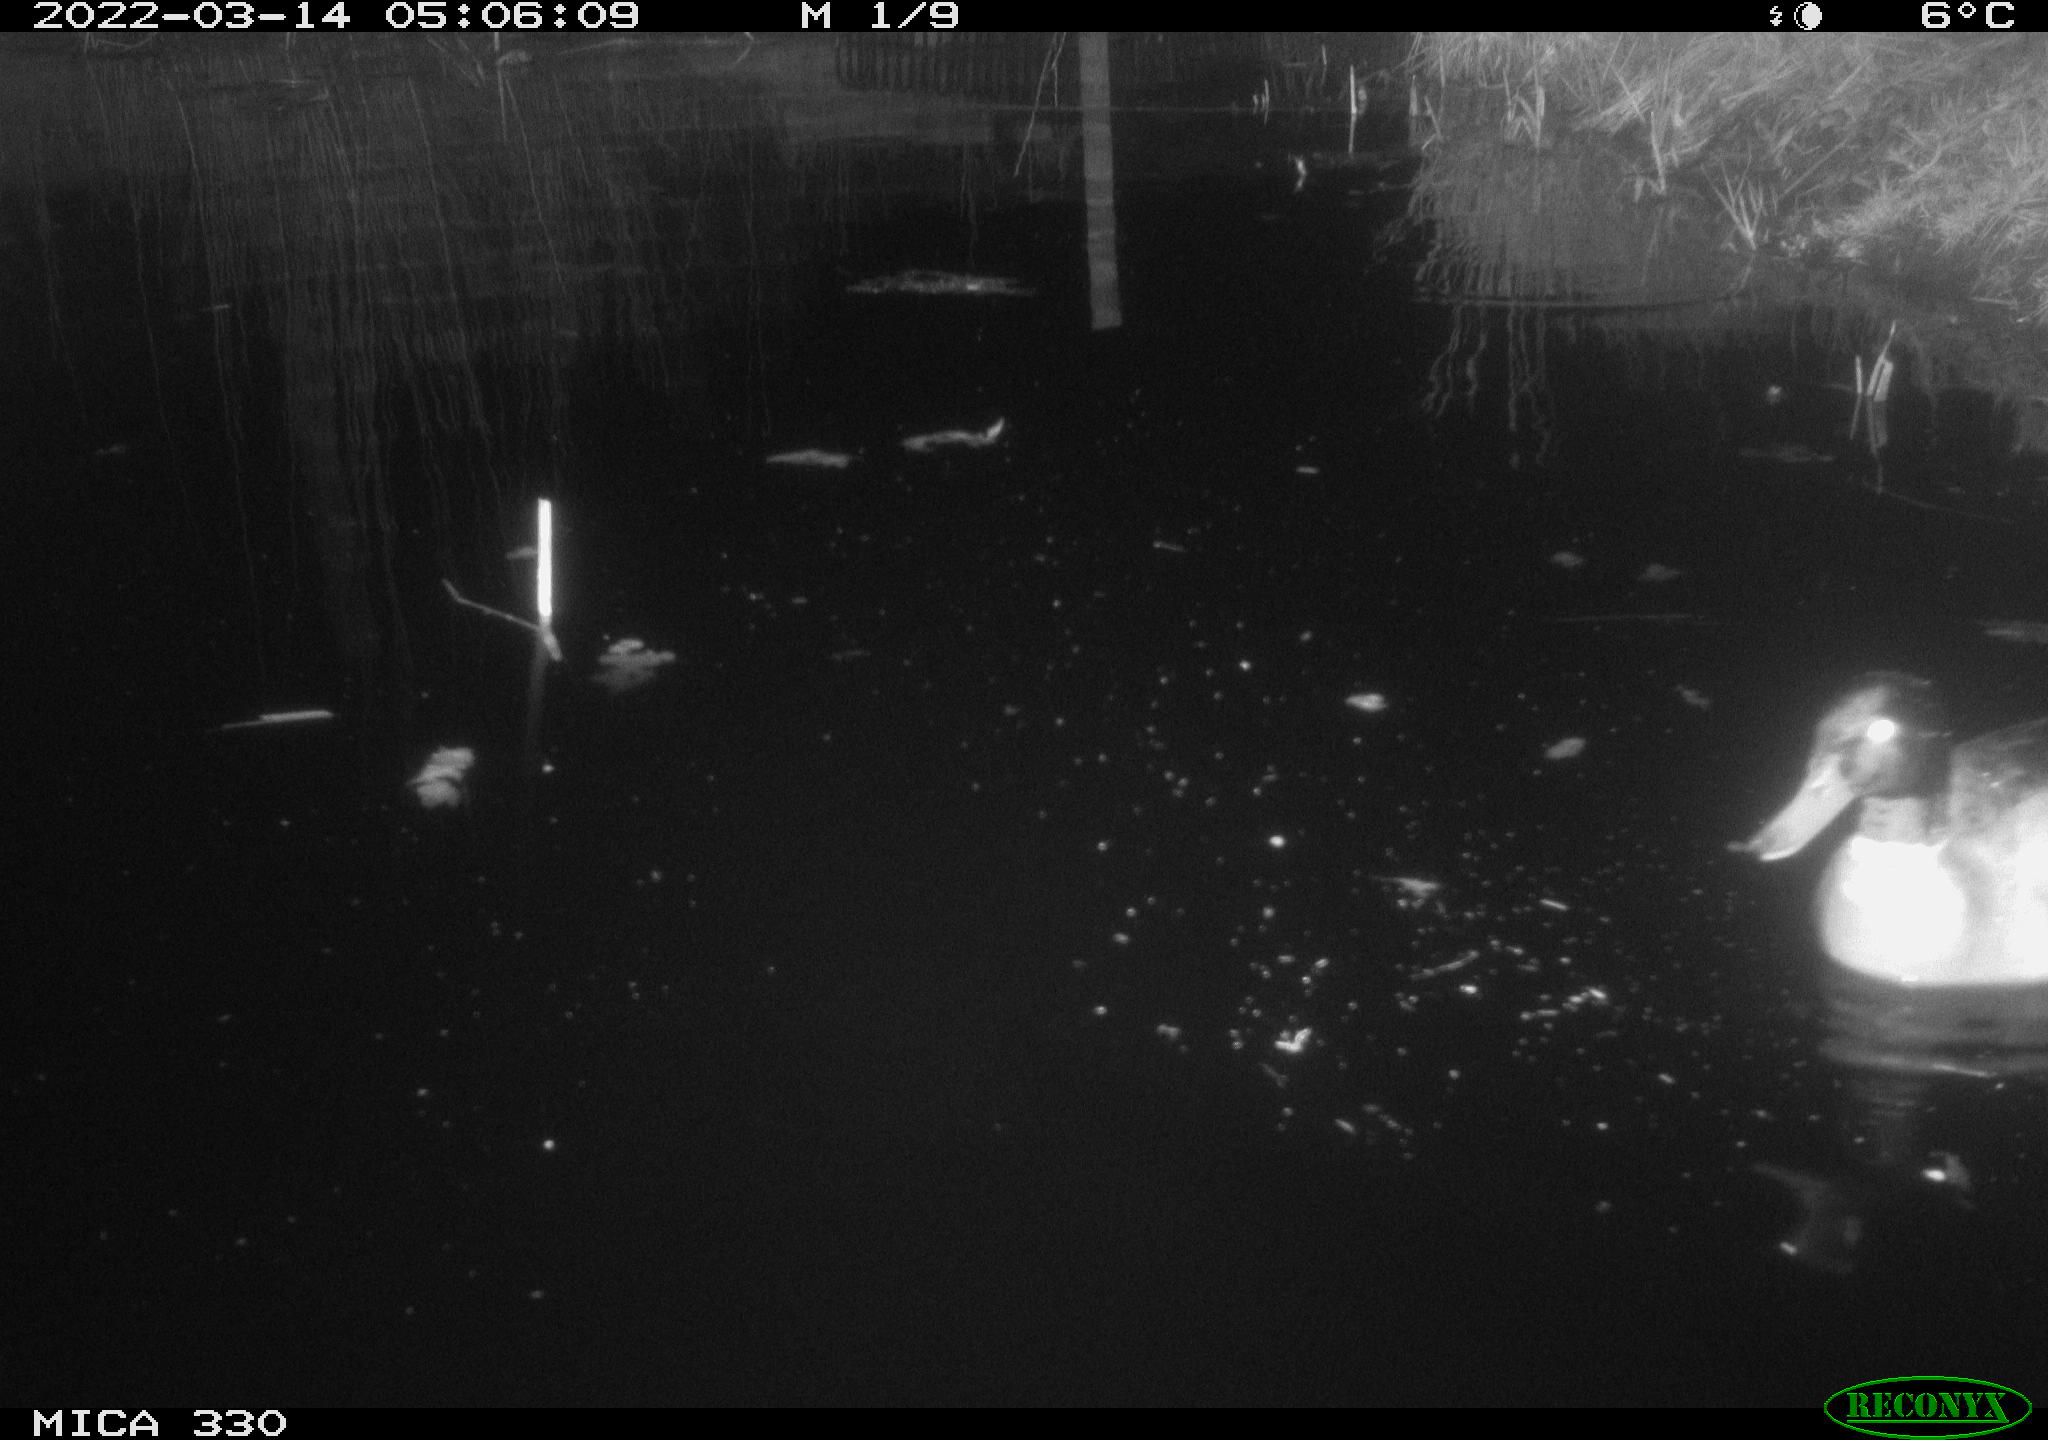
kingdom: Animalia
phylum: Chordata
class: Aves
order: Anseriformes
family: Anatidae
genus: Anas
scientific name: Anas platyrhynchos
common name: Mallard
